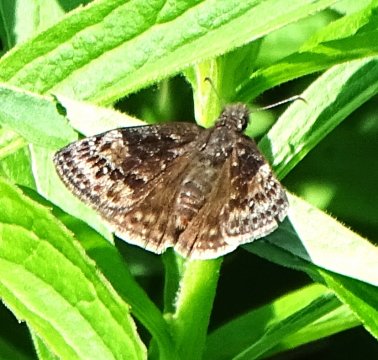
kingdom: Animalia
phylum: Arthropoda
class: Insecta
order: Lepidoptera
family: Hesperiidae
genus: Gesta
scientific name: Gesta
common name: Wild Indigo Duskywing
